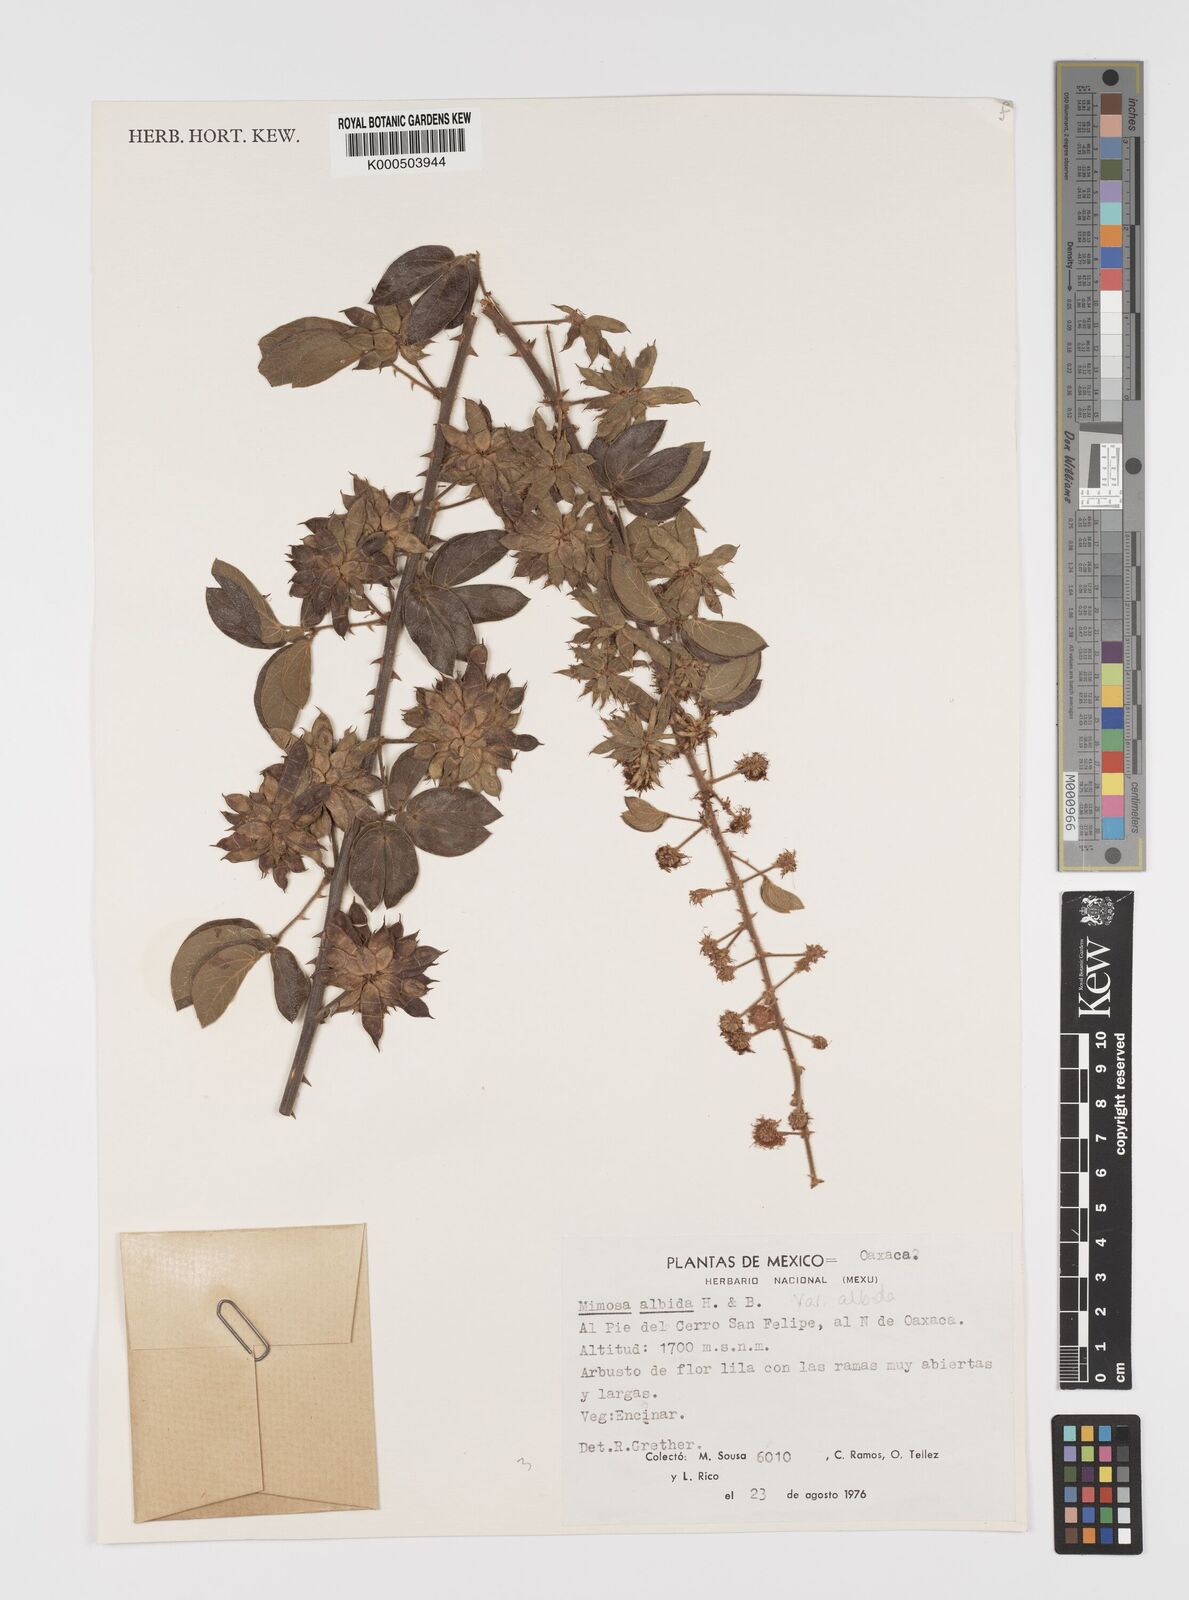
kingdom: Plantae
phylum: Tracheophyta
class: Magnoliopsida
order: Fabales
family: Fabaceae
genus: Mimosa
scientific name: Mimosa albida
